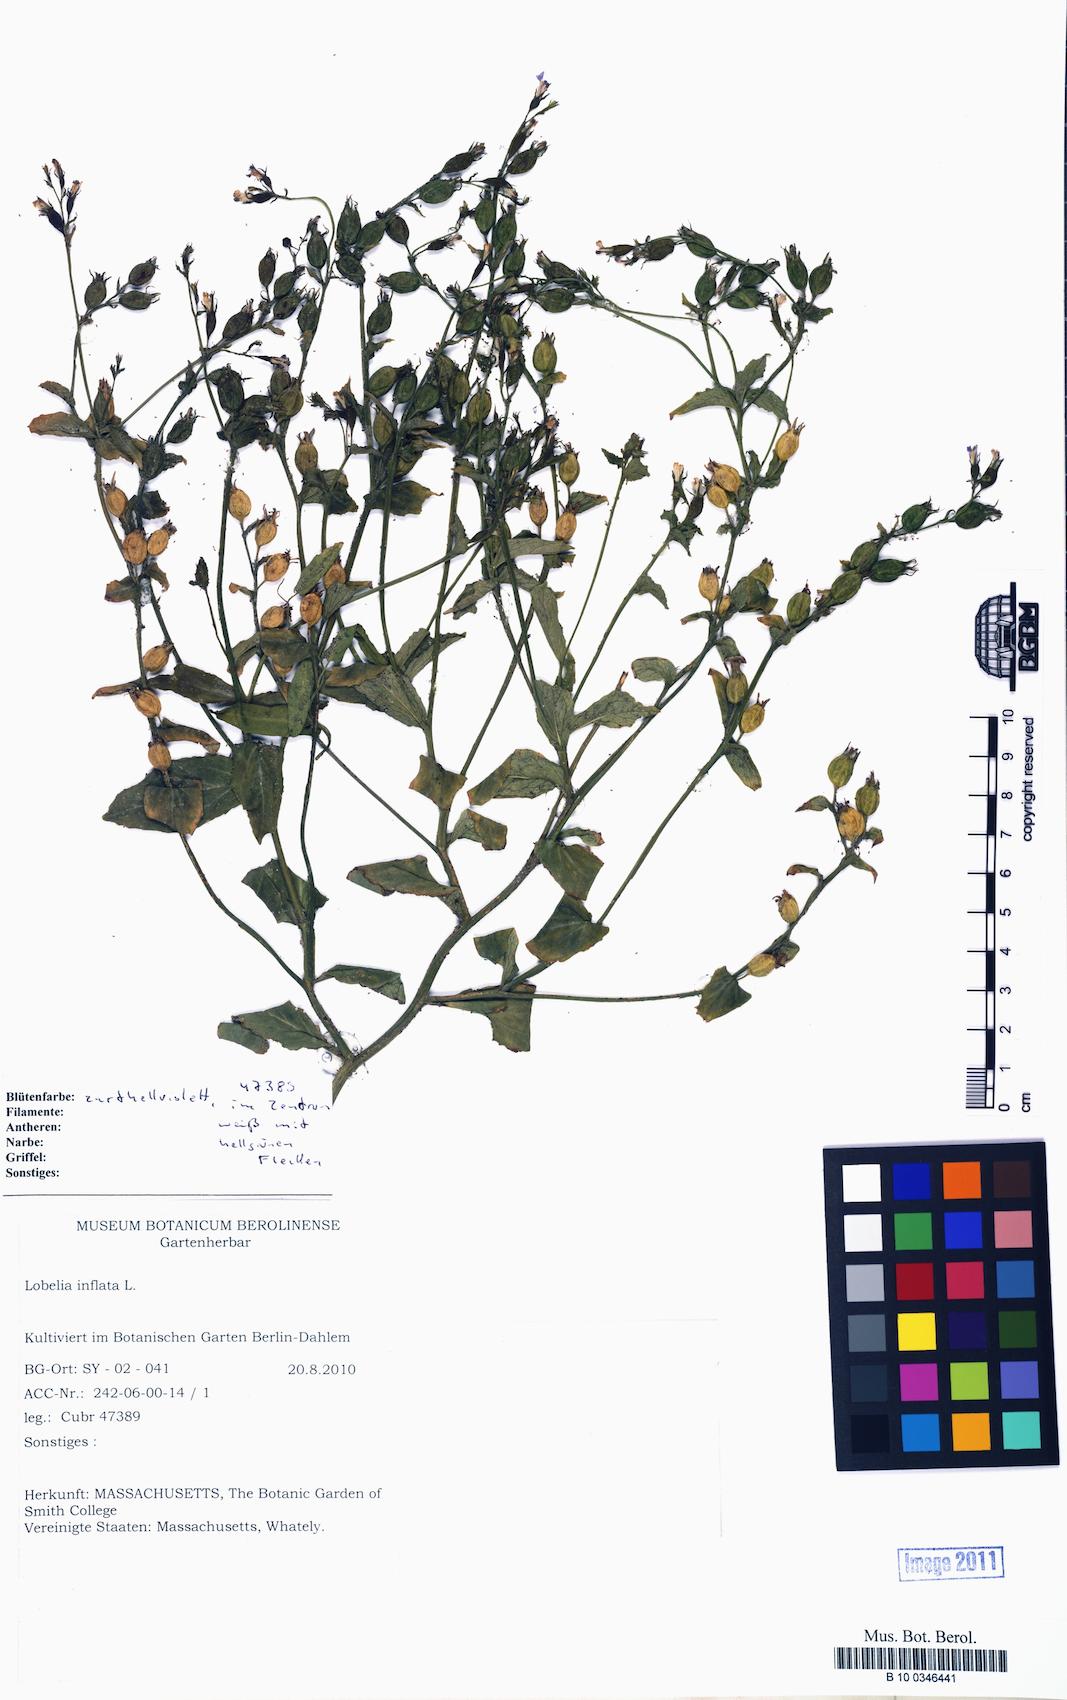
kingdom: Plantae
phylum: Tracheophyta
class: Magnoliopsida
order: Asterales
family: Campanulaceae
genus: Lobelia
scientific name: Lobelia inflata
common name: Indian tobacco
